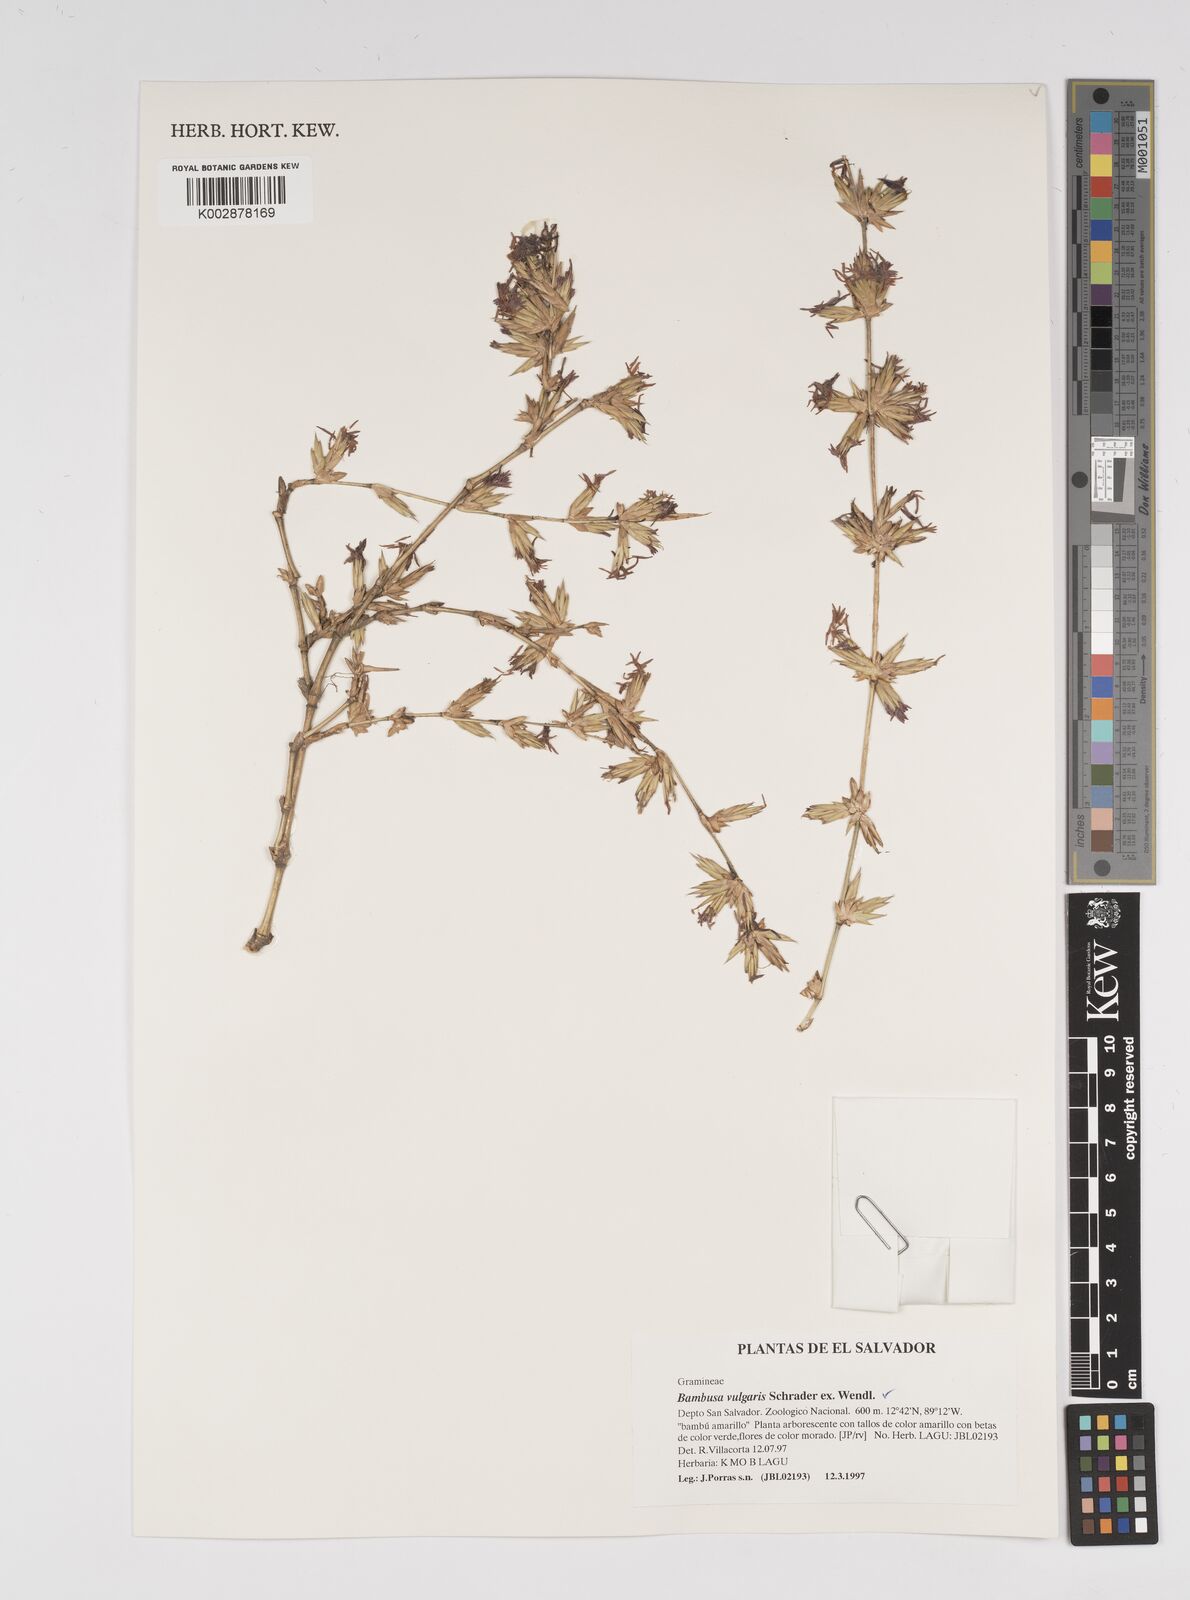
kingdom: Plantae
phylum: Tracheophyta
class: Liliopsida
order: Poales
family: Poaceae
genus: Bambusa
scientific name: Bambusa
